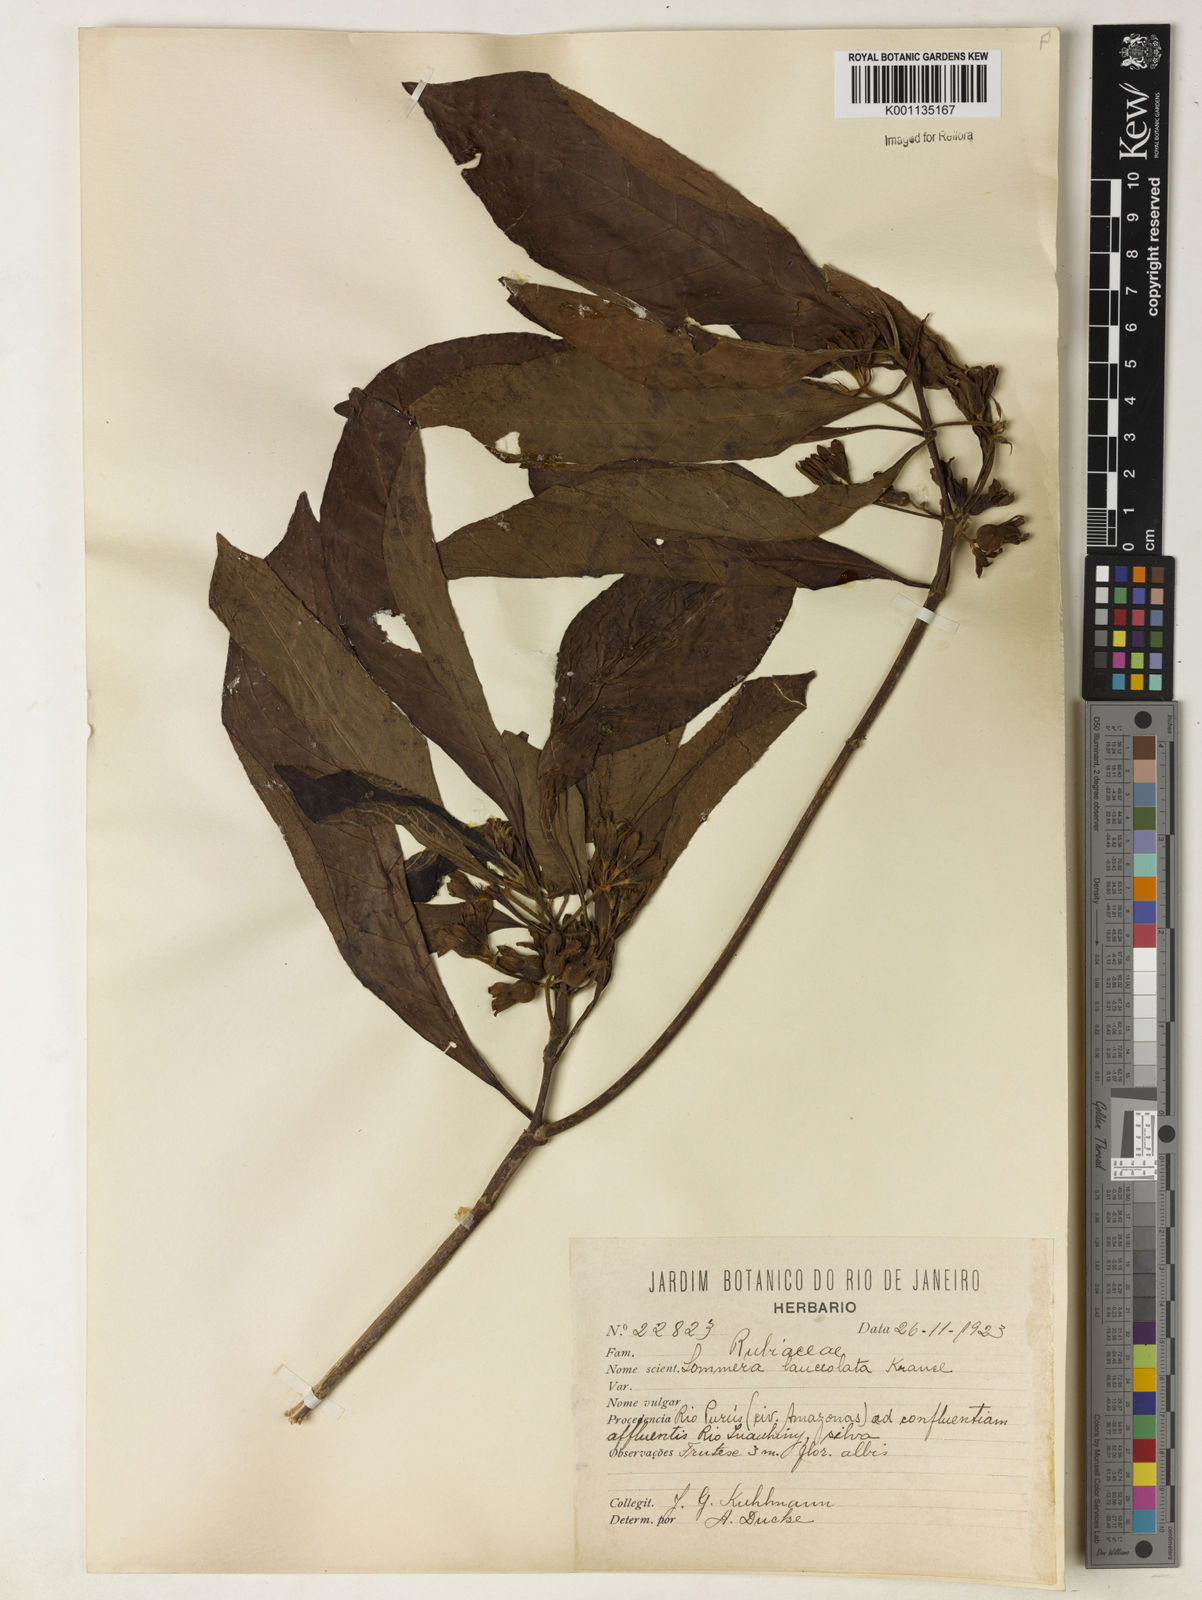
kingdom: Plantae
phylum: Tracheophyta
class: Magnoliopsida
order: Gentianales
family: Rubiaceae
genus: Sommera
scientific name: Sommera sabiceoides
